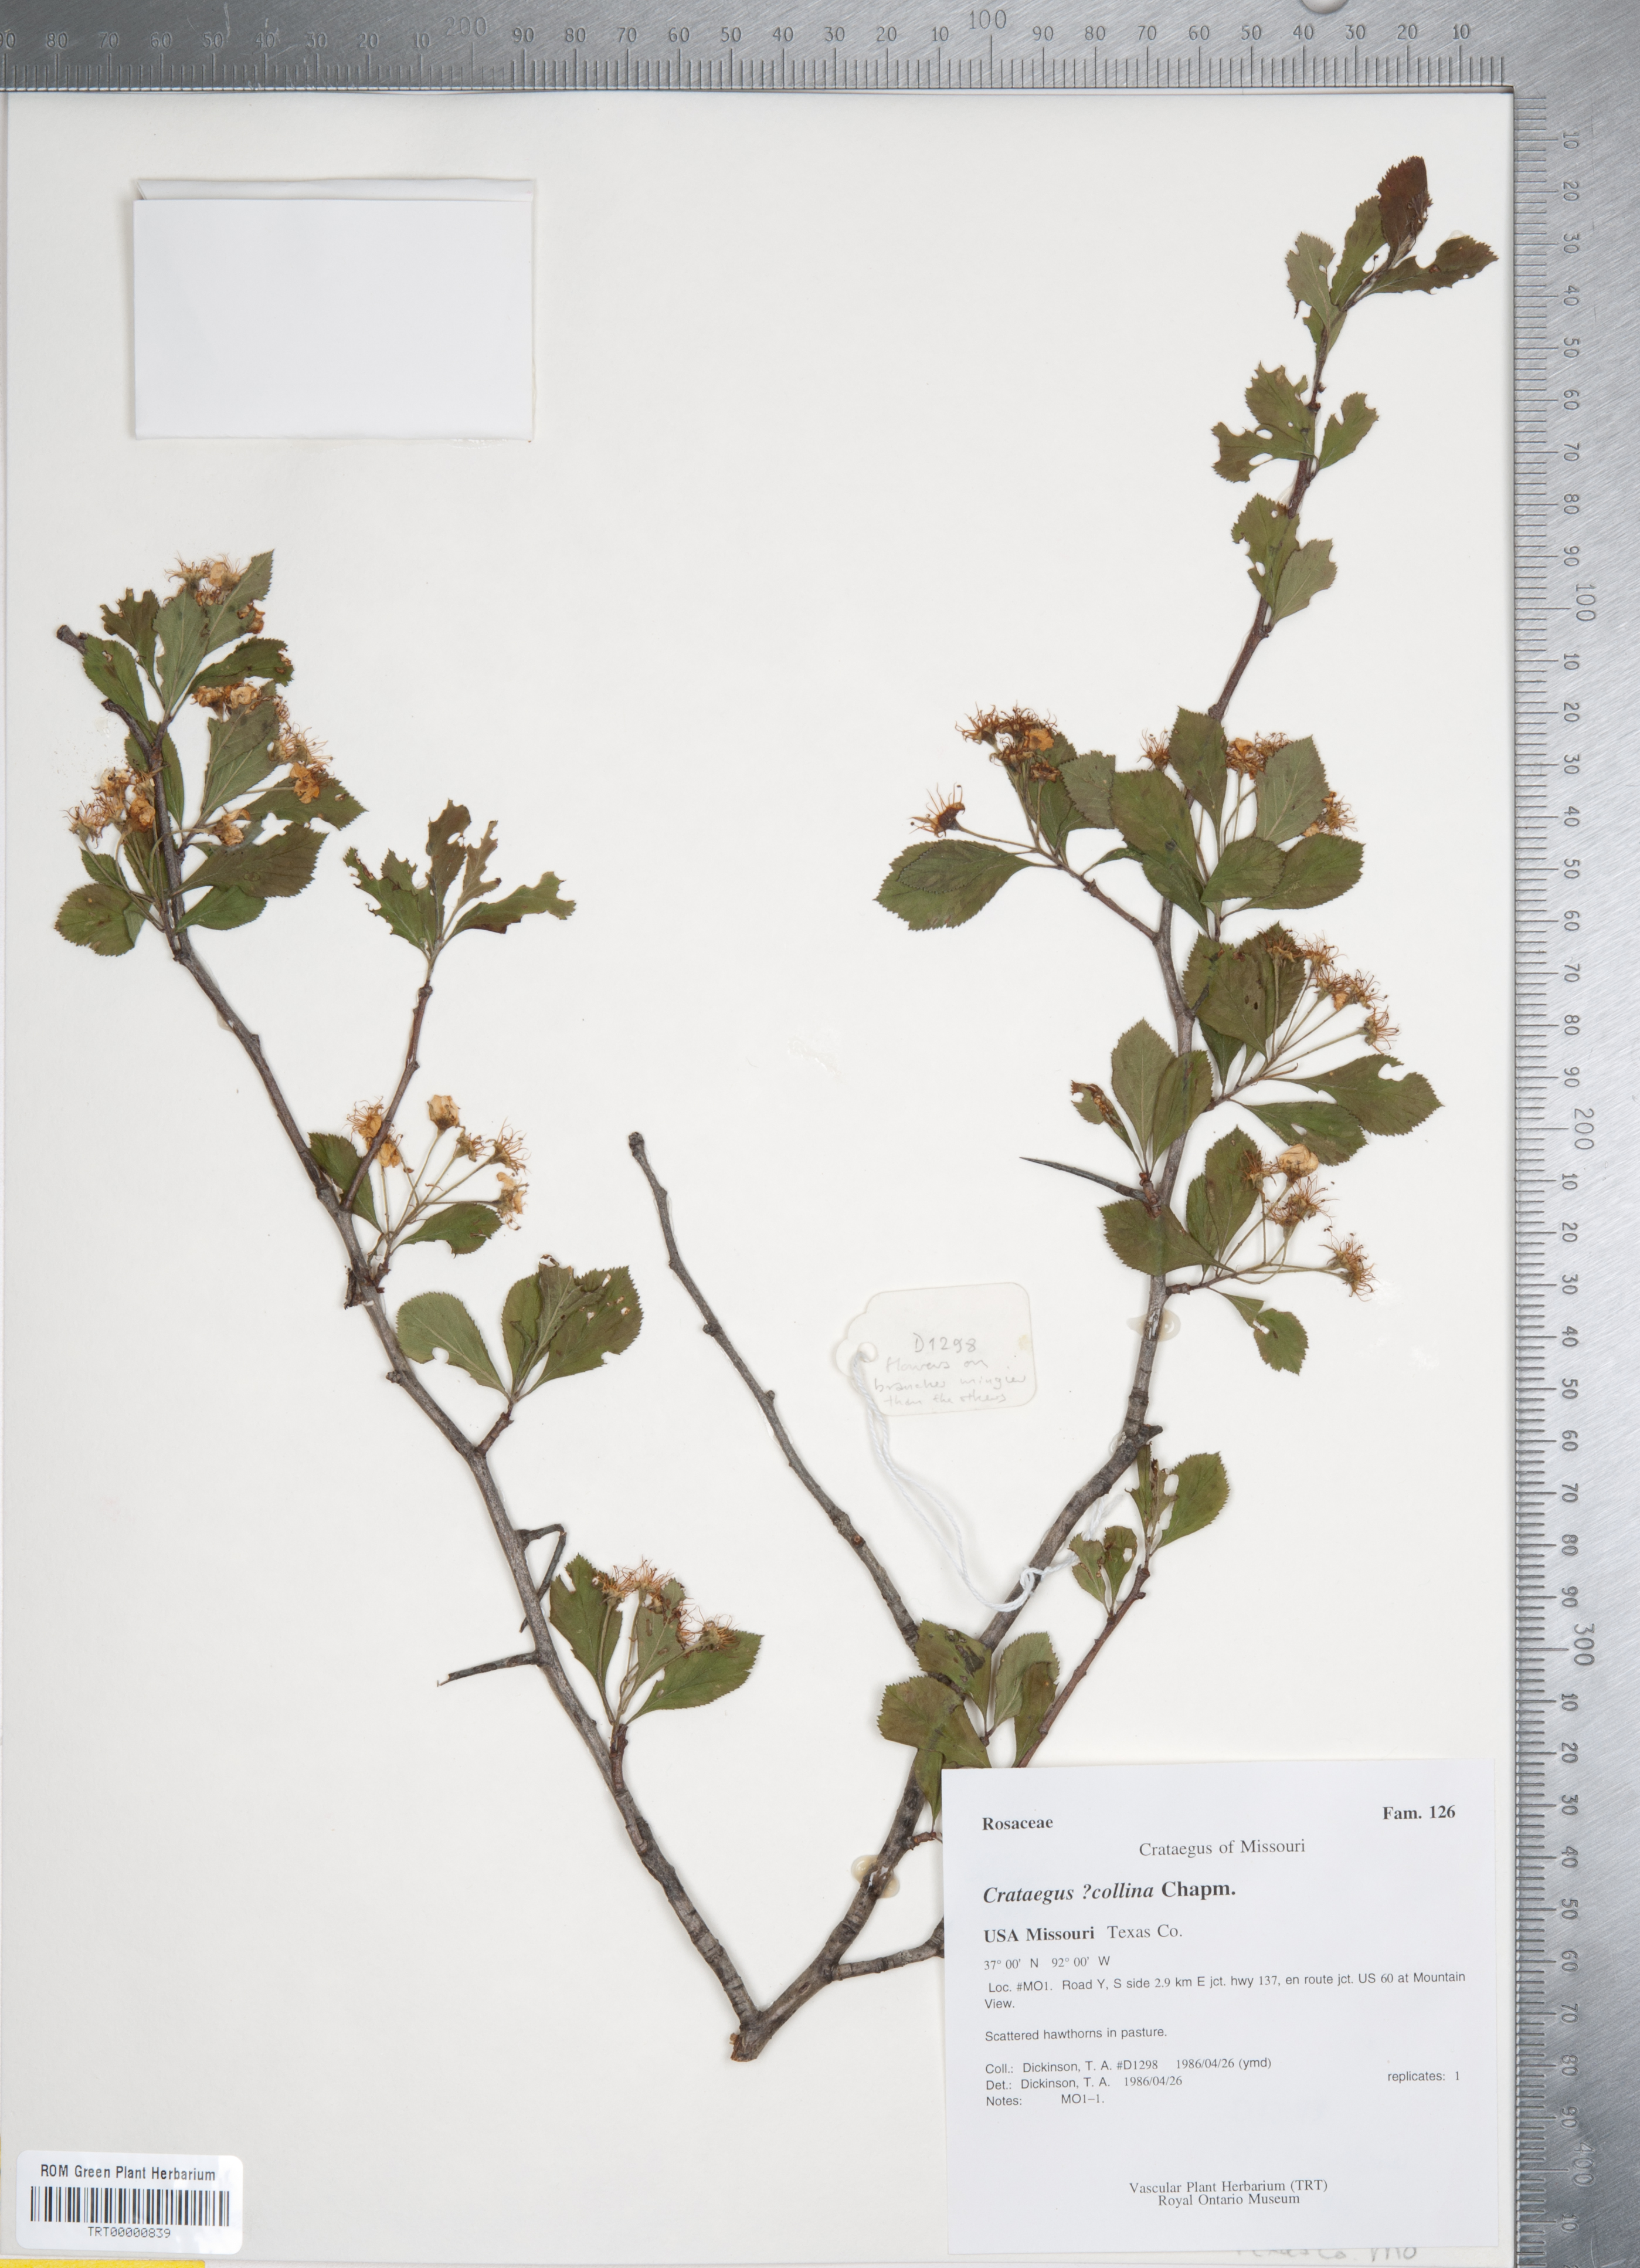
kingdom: Plantae
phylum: Tracheophyta
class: Magnoliopsida
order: Rosales
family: Rosaceae
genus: Crataegus
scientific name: Crataegus collina
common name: Hillside hawthorn
